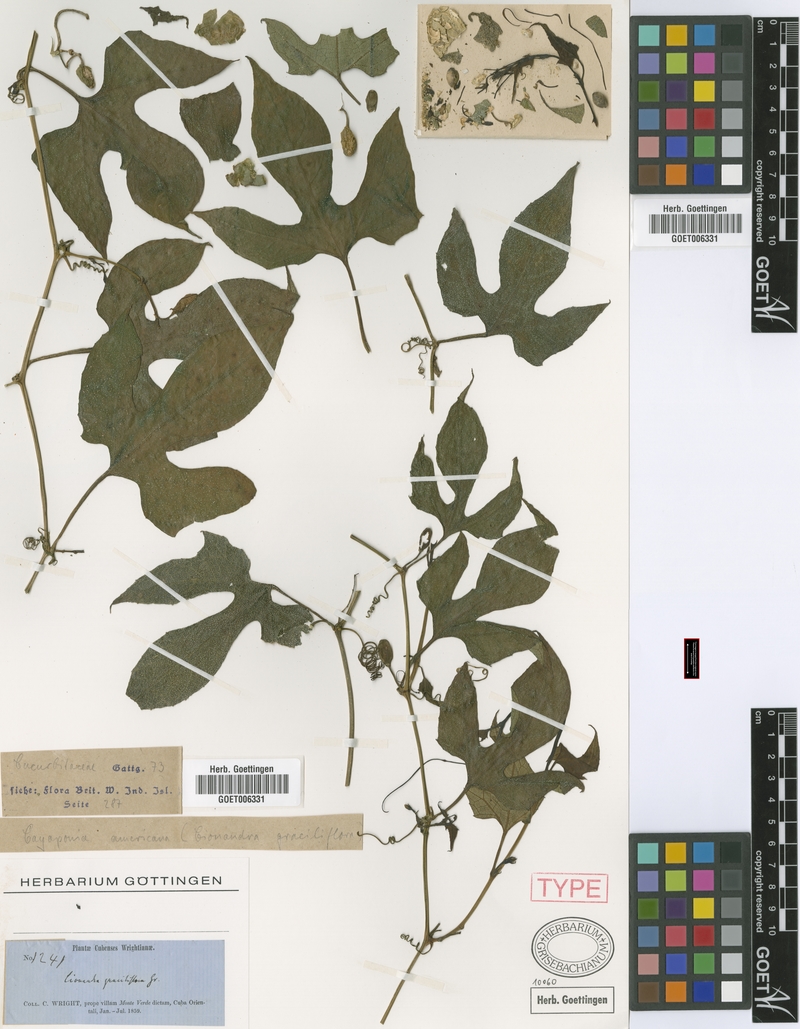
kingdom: Plantae
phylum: Tracheophyta
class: Magnoliopsida
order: Cucurbitales
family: Cucurbitaceae
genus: Cayaponia
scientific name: Cayaponia racemosa
